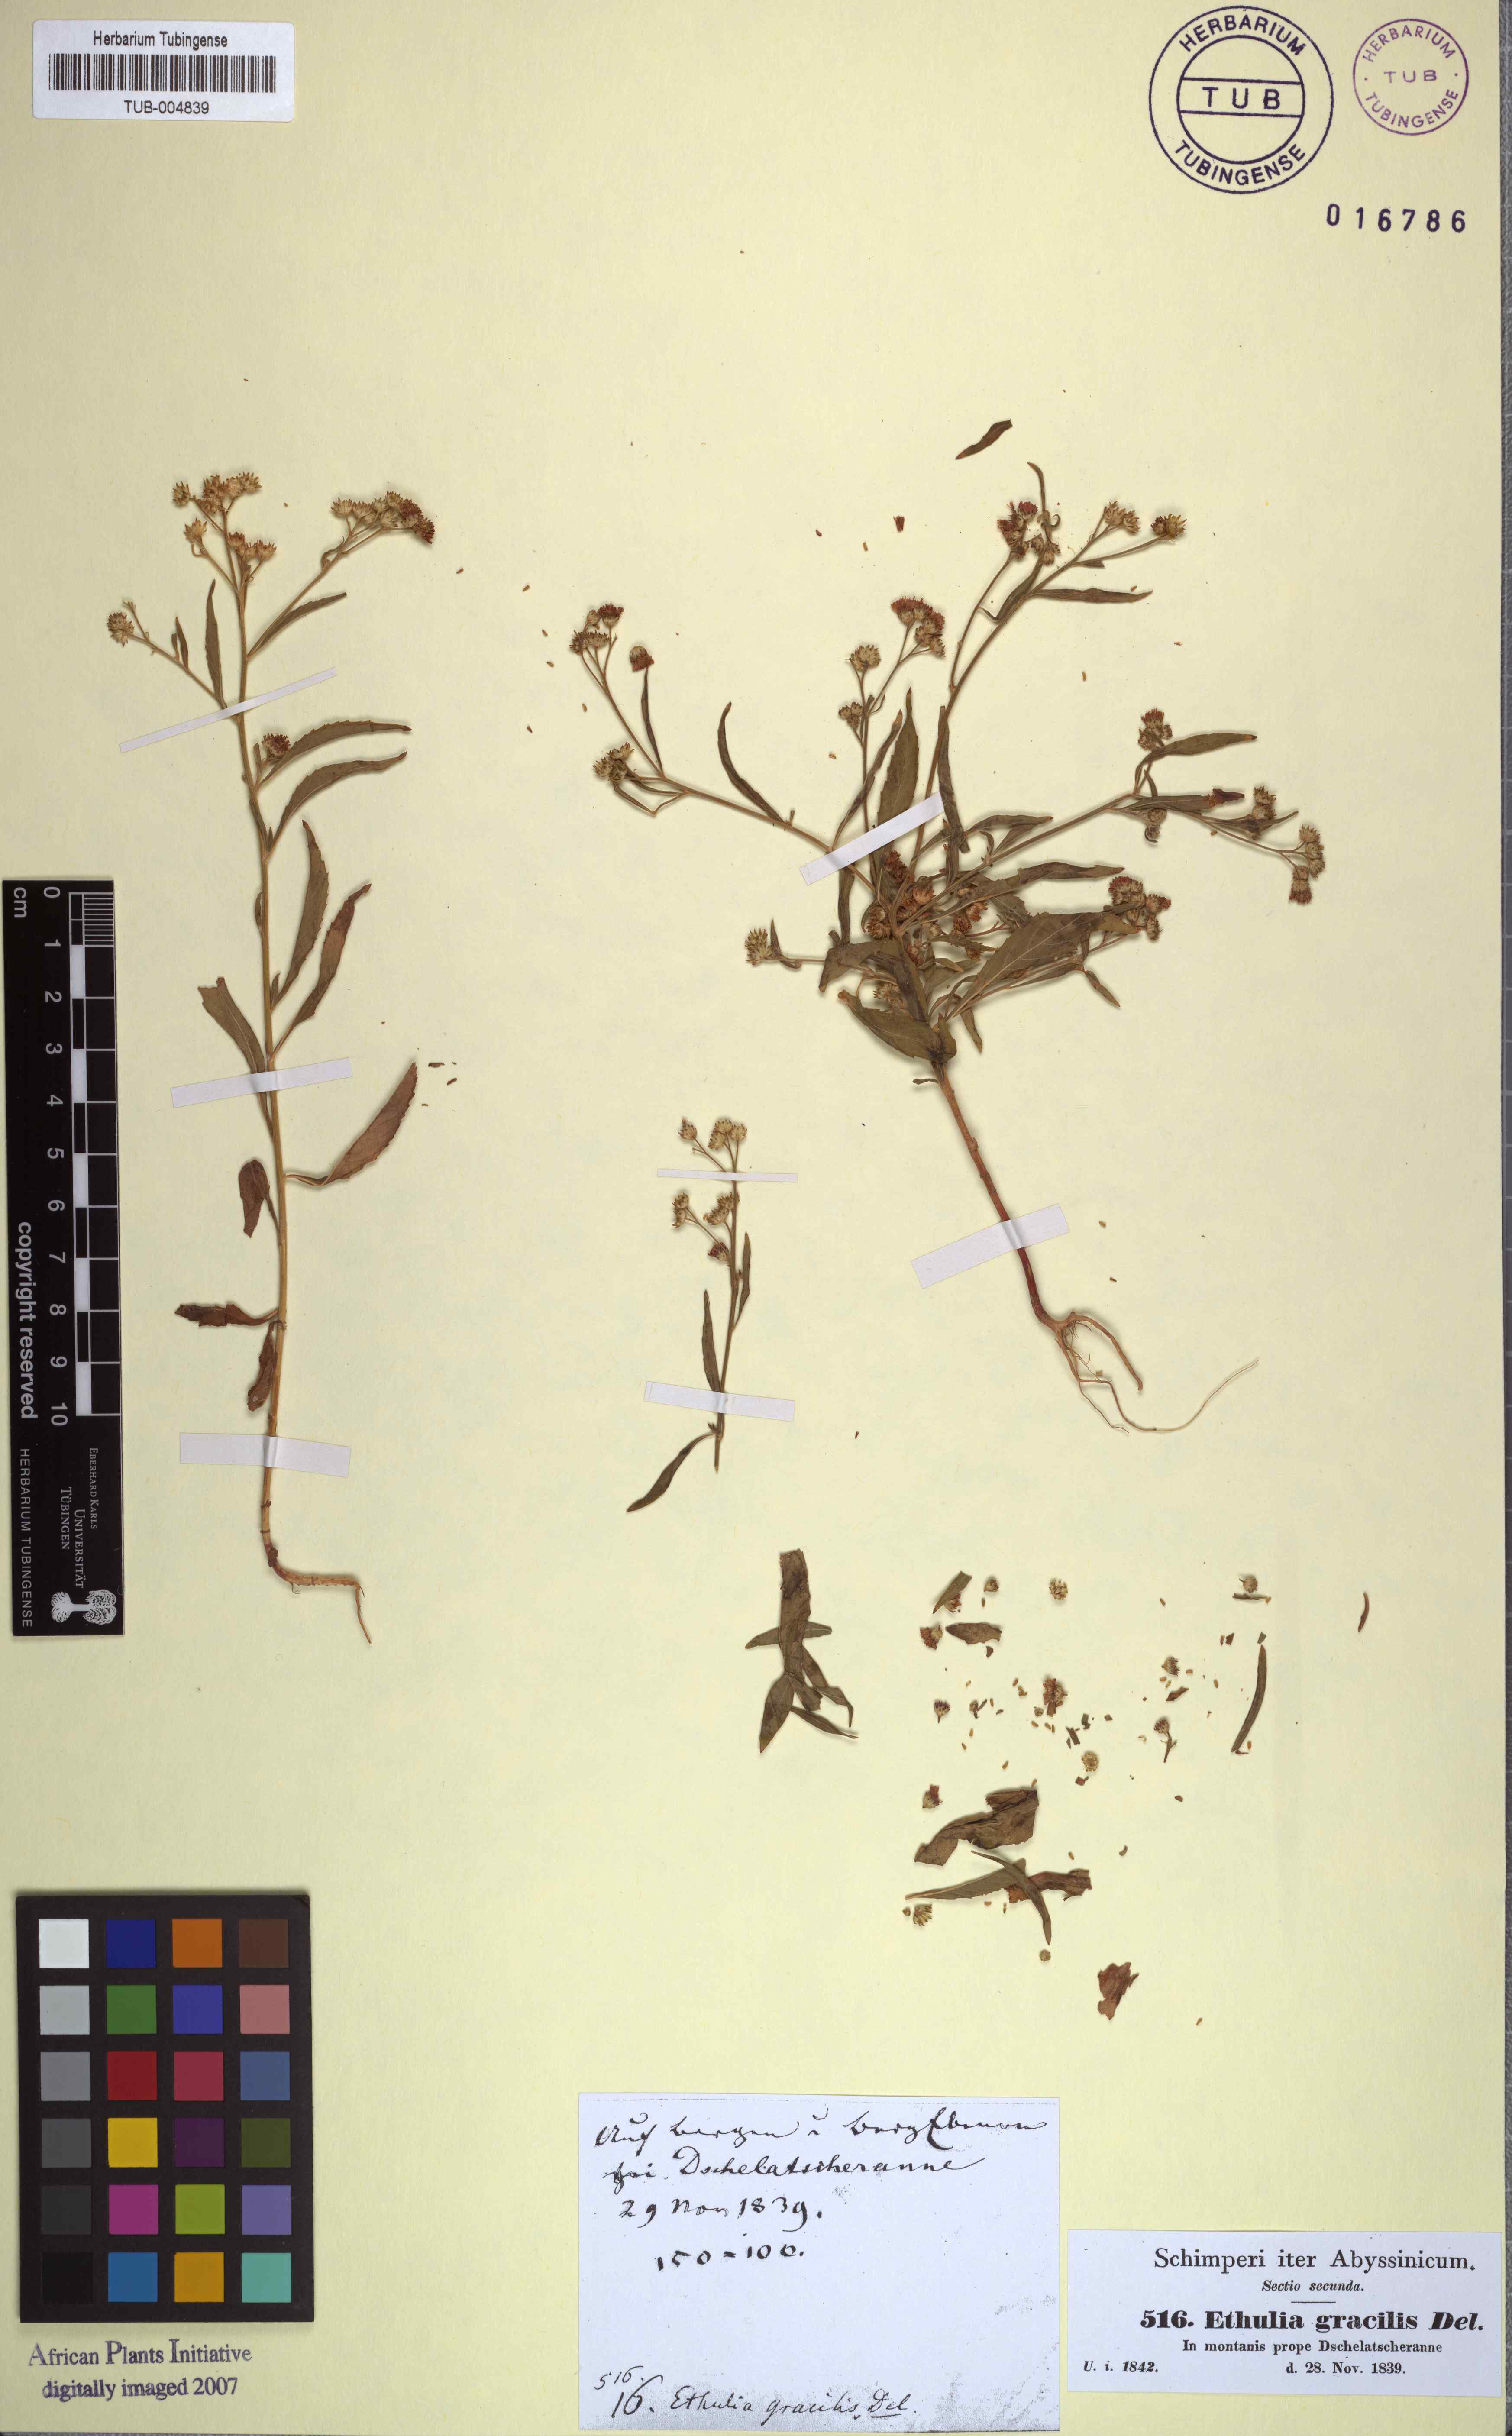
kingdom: Plantae
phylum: Tracheophyta
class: Magnoliopsida
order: Asterales
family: Asteraceae
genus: Ethulia
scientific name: Ethulia conyzoides
